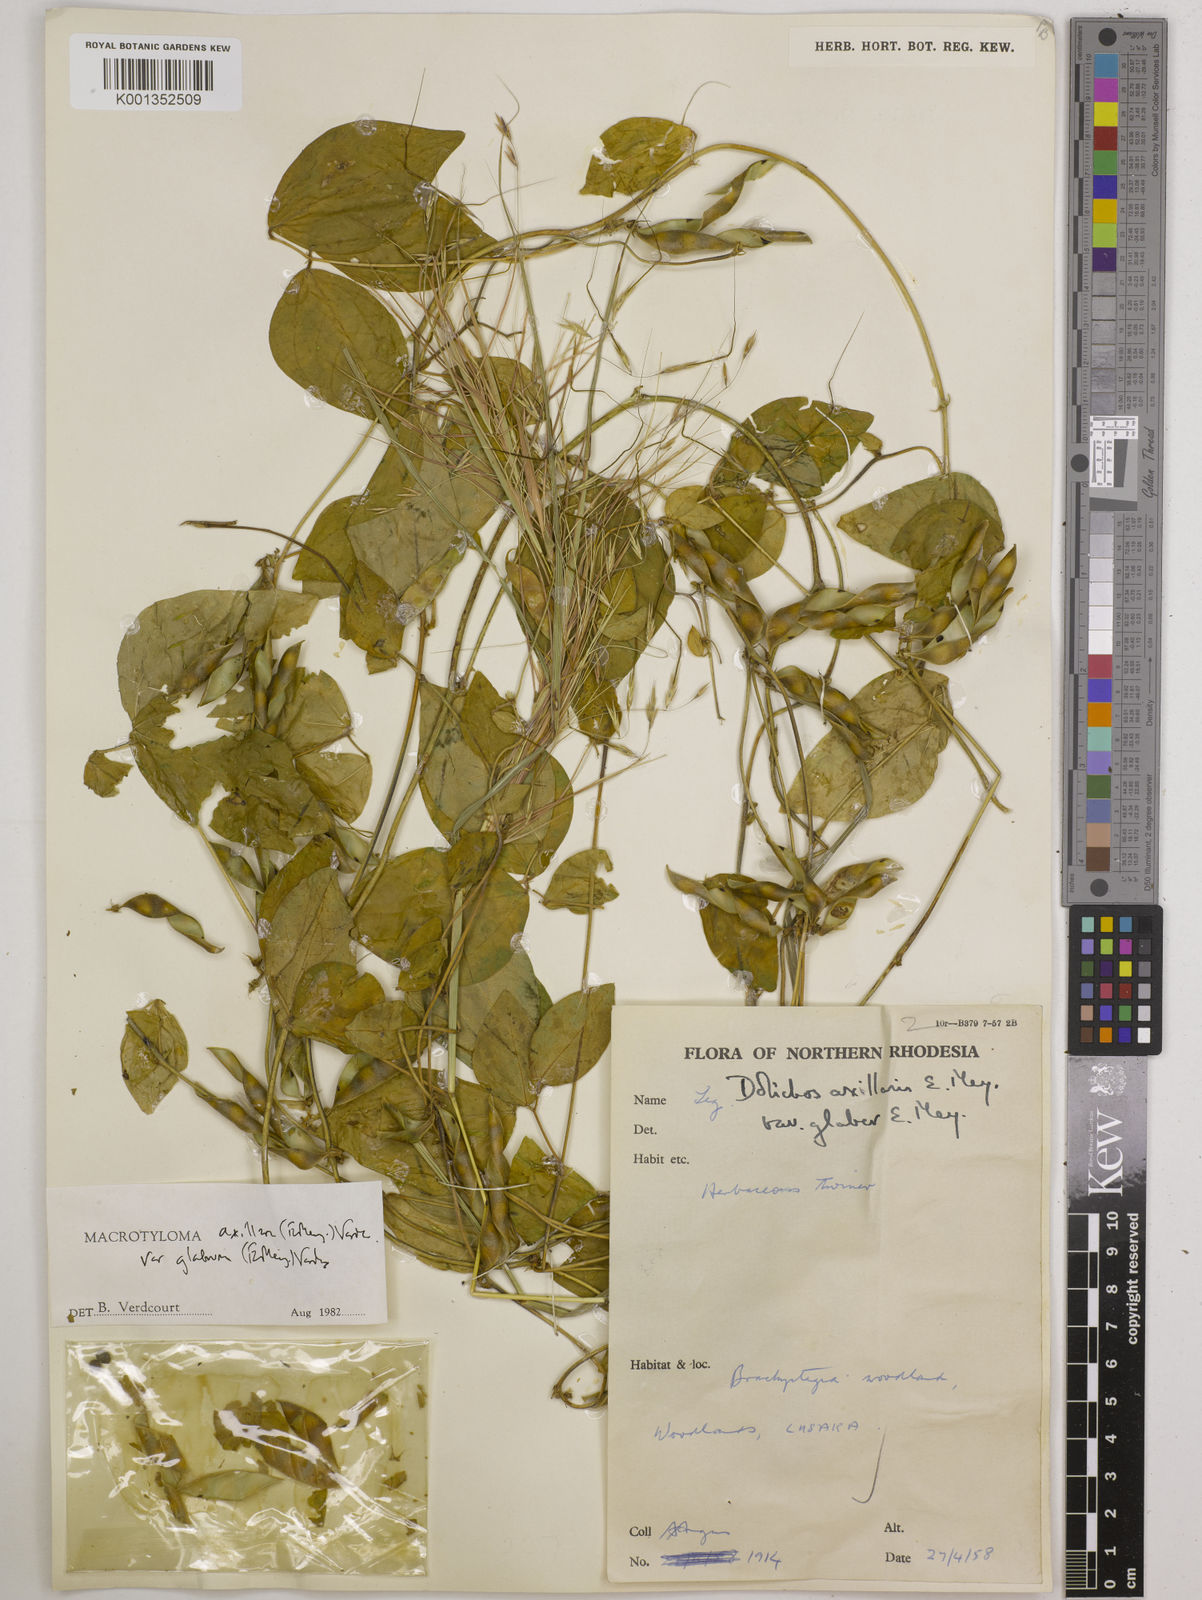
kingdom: Plantae
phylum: Tracheophyta
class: Magnoliopsida
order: Fabales
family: Fabaceae
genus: Macrotyloma
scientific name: Macrotyloma
